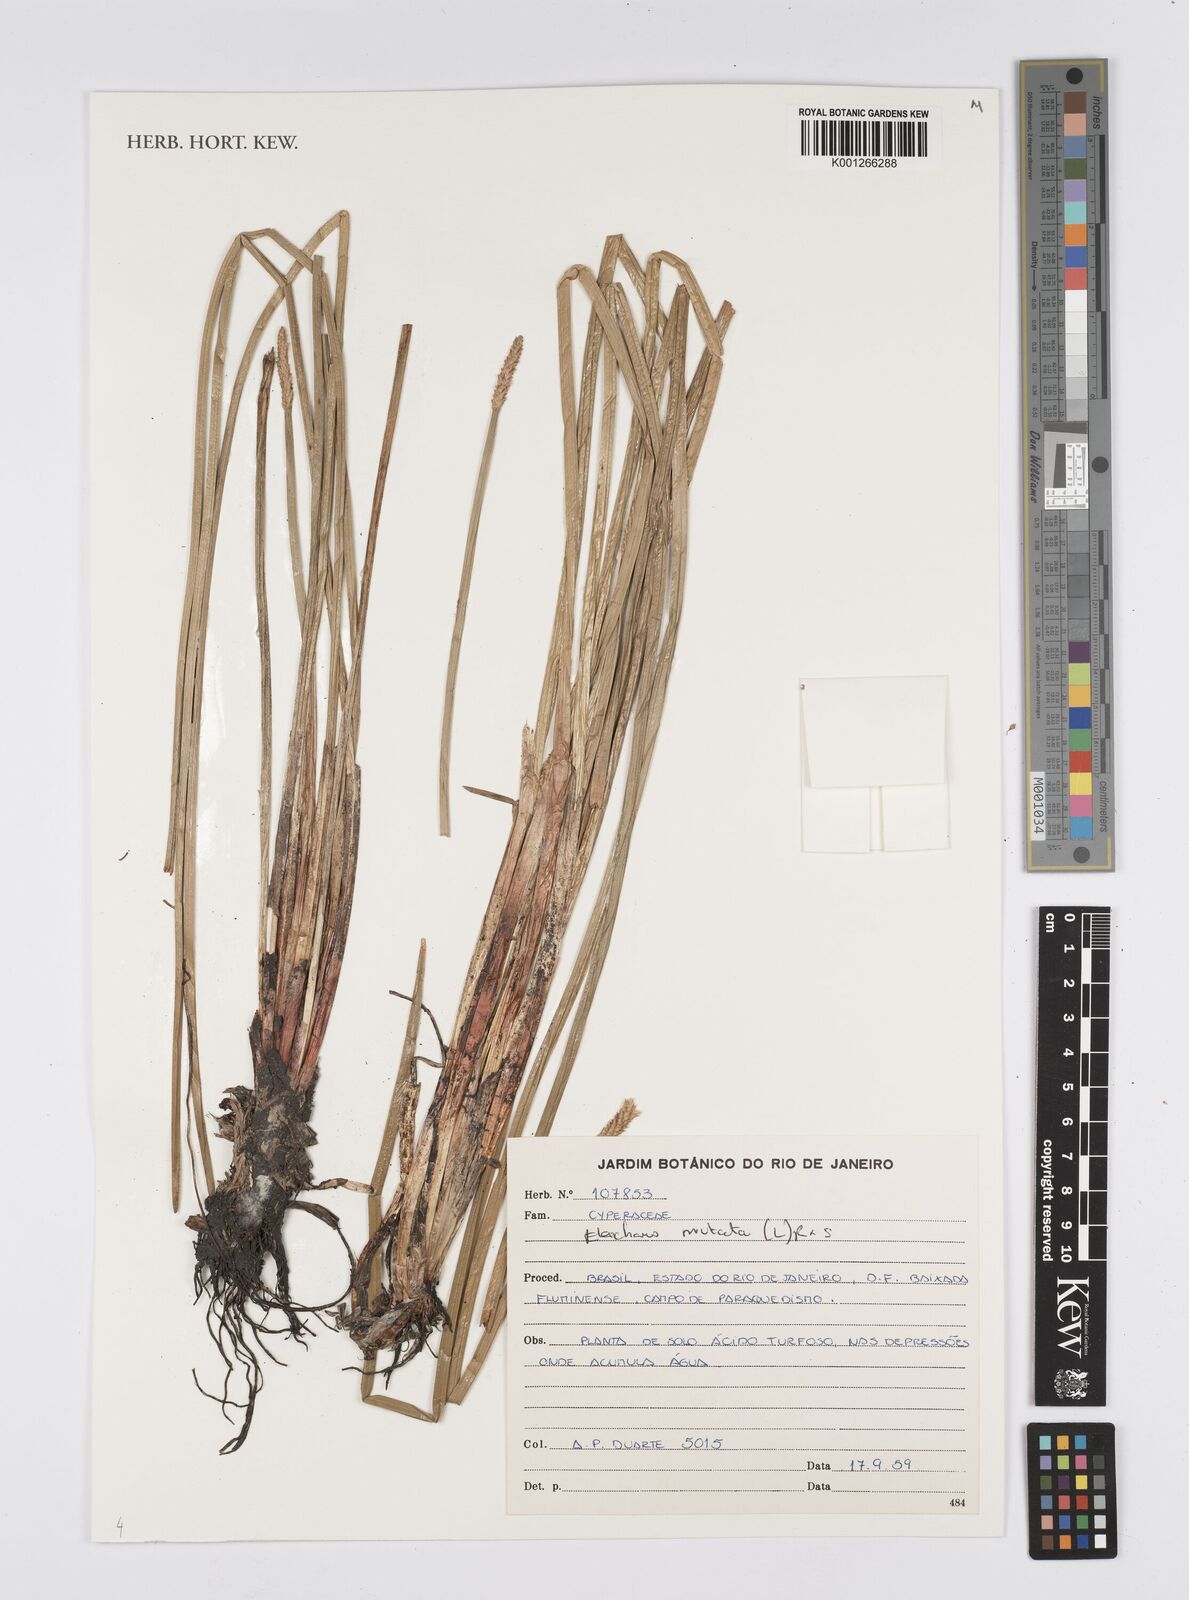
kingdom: Plantae
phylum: Tracheophyta
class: Liliopsida
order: Poales
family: Cyperaceae
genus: Eleocharis
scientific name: Eleocharis mutata
